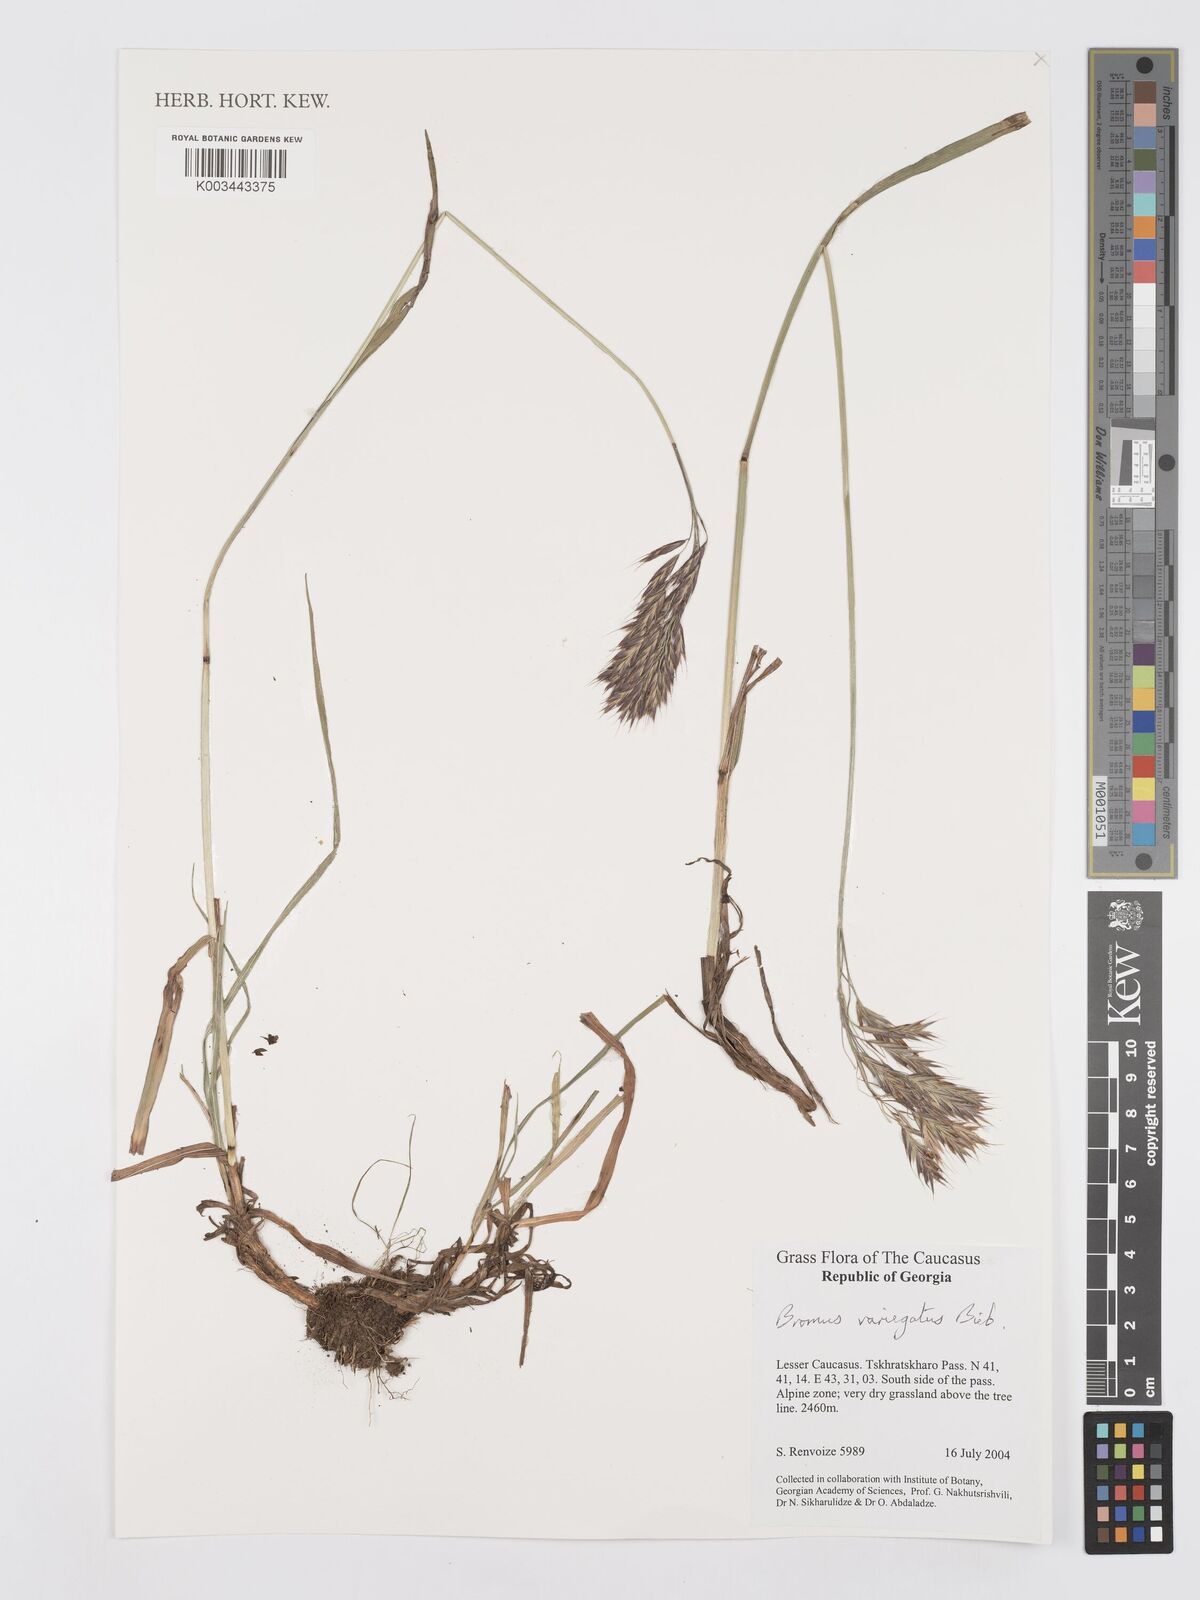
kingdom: Plantae
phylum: Tracheophyta
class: Liliopsida
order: Poales
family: Poaceae
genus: Bromus
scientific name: Bromus variegatus
